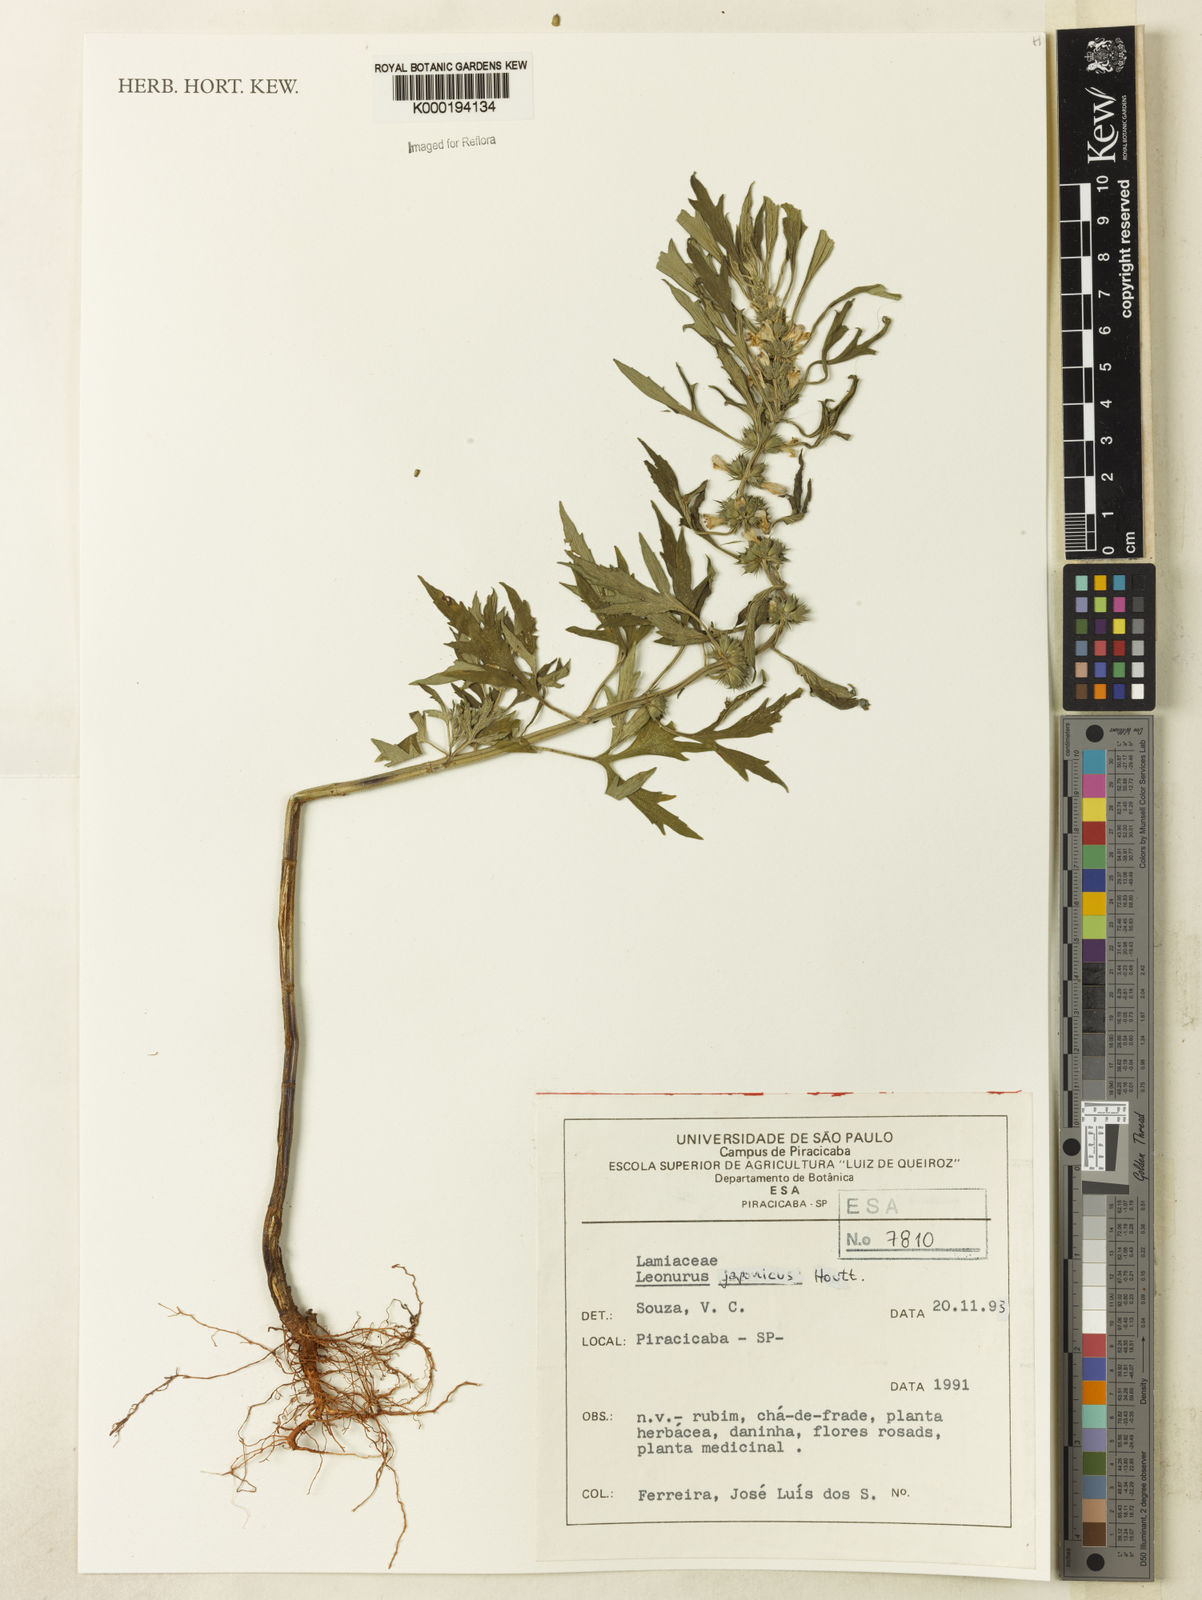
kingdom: Plantae
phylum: Tracheophyta
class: Magnoliopsida
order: Lamiales
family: Lamiaceae
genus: Leonurus
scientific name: Leonurus japonicus
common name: Honeyweed
